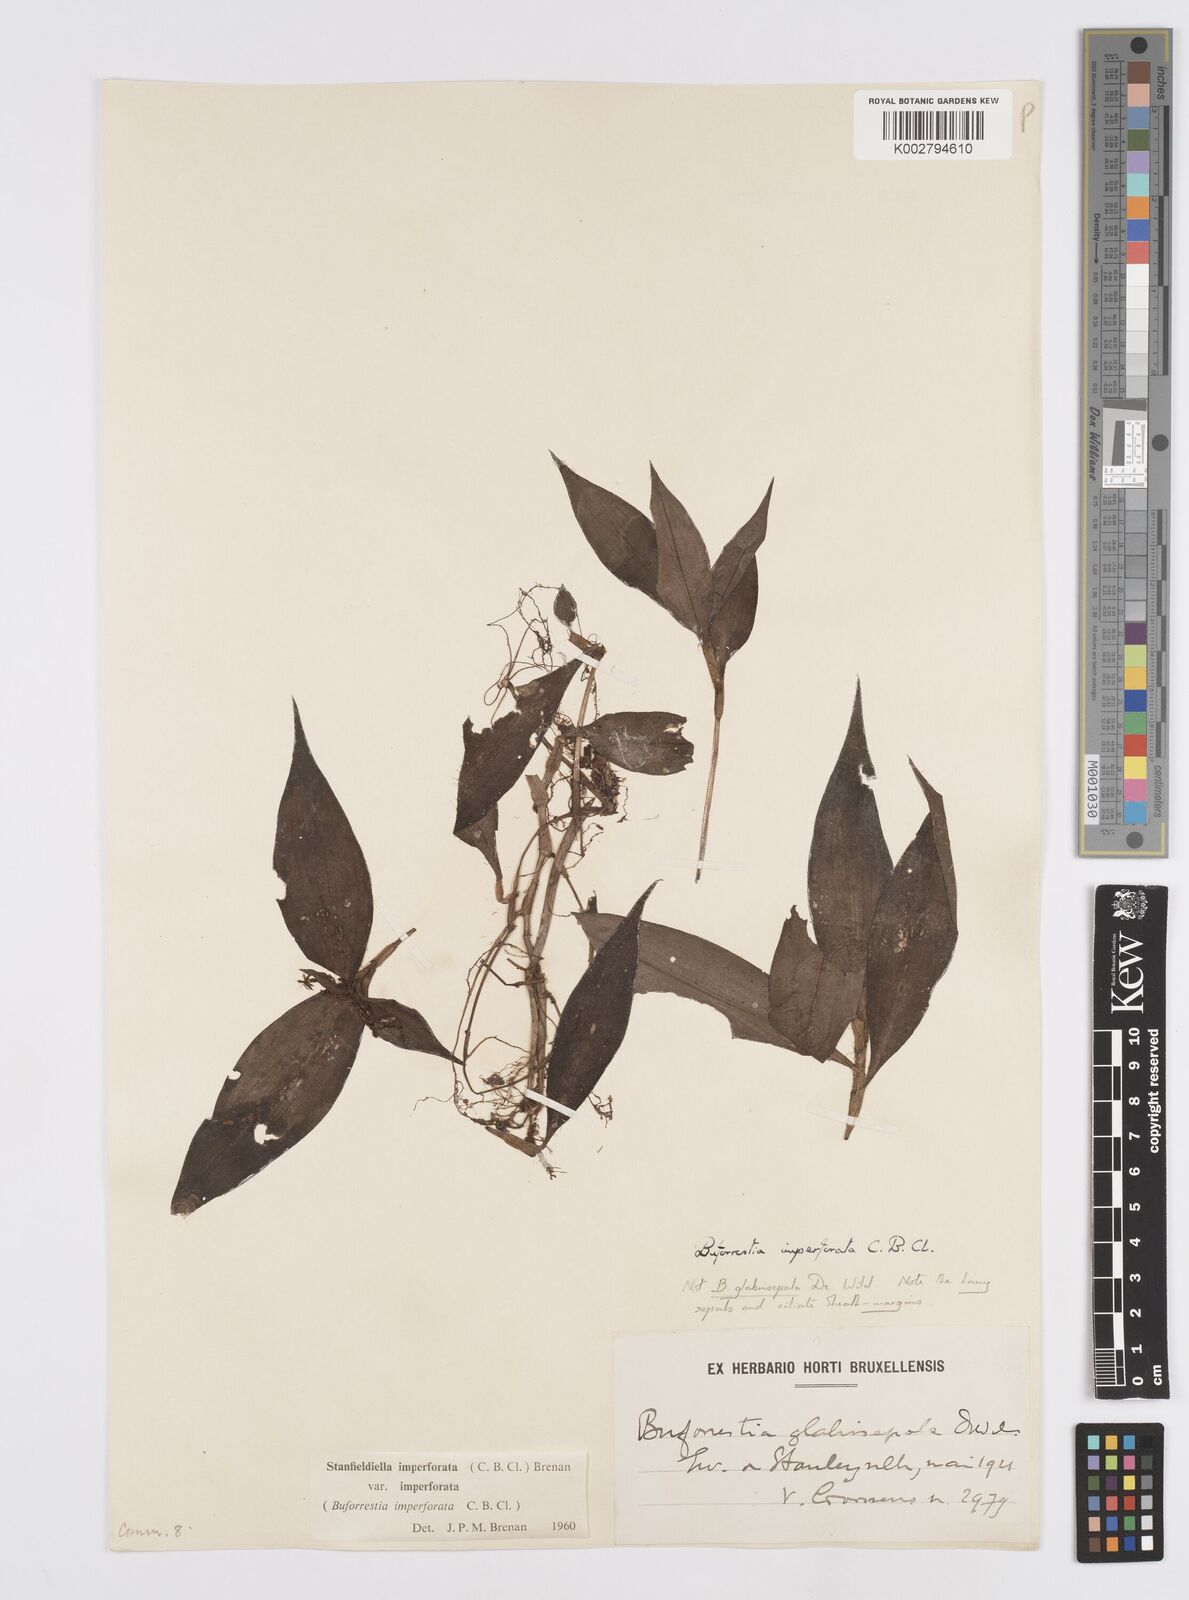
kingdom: Plantae
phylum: Tracheophyta
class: Liliopsida
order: Commelinales
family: Commelinaceae
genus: Stanfieldiella
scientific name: Stanfieldiella imperforata
